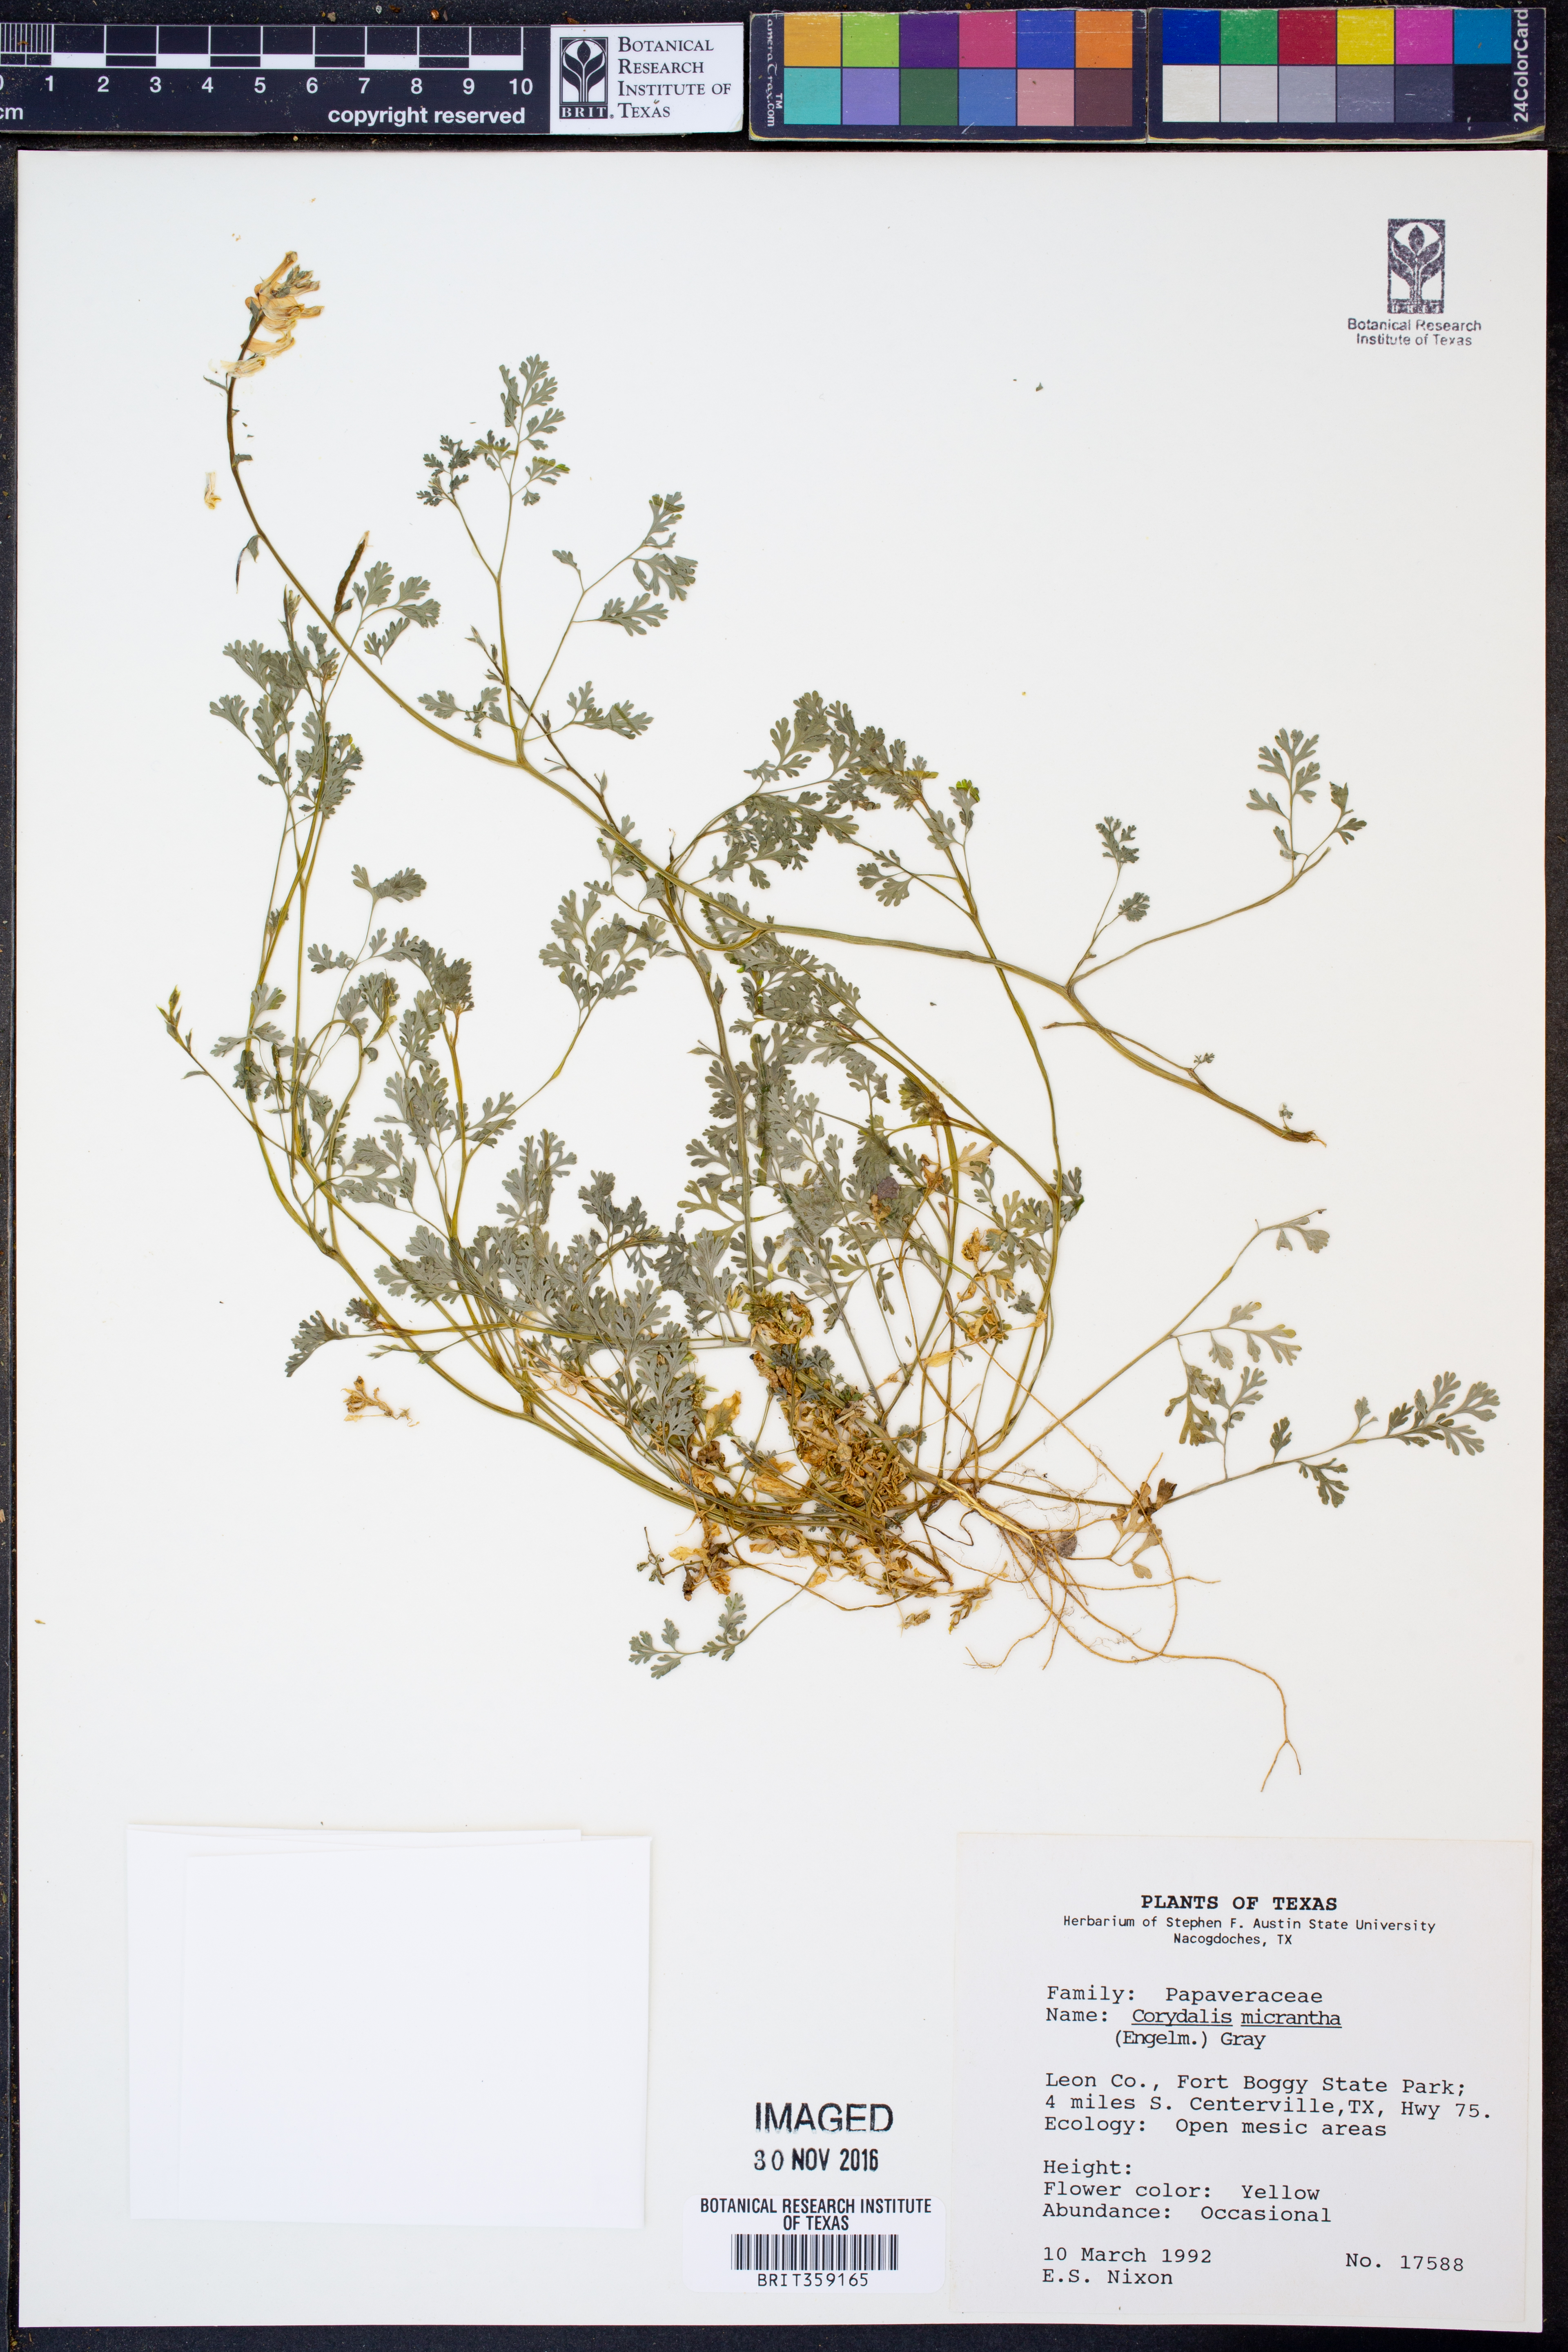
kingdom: Plantae
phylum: Tracheophyta
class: Magnoliopsida
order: Ranunculales
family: Papaveraceae
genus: Corydalis
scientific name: Corydalis micrantha
